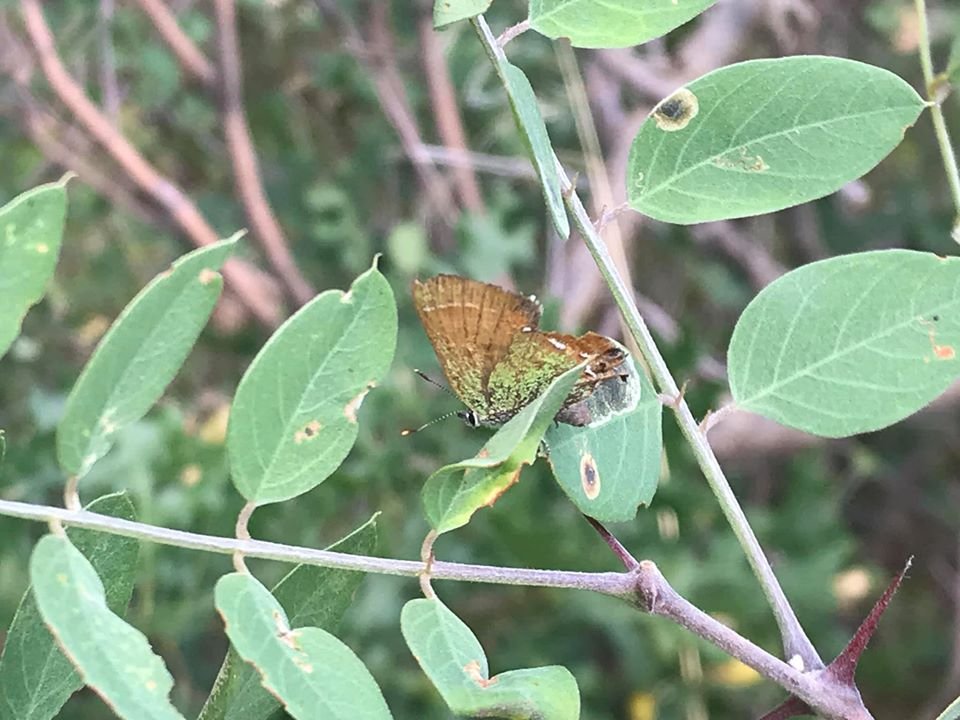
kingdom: Animalia
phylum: Arthropoda
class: Insecta
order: Lepidoptera
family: Lycaenidae
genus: Mitoura
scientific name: Mitoura gryneus
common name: Juniper Hairstreak
